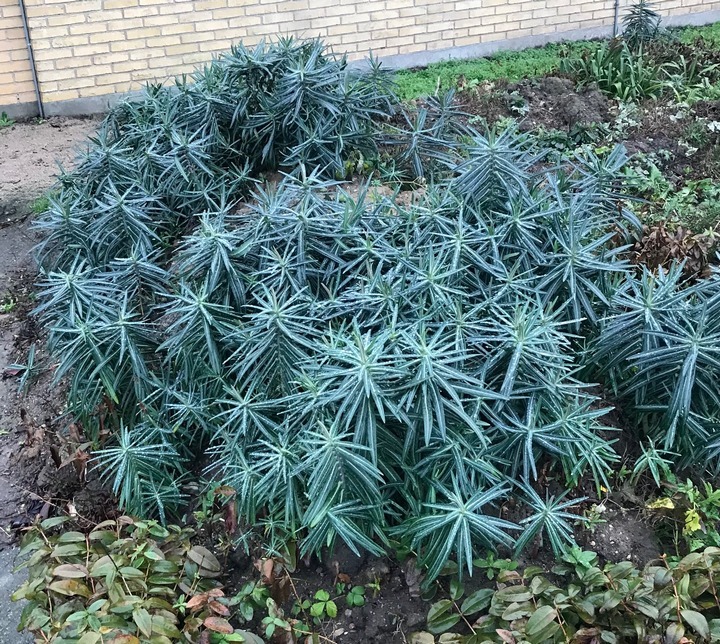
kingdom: Plantae
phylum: Tracheophyta
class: Magnoliopsida
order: Malpighiales
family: Euphorbiaceae
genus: Euphorbia
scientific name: Euphorbia lathyris
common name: Kors-vortemælk
